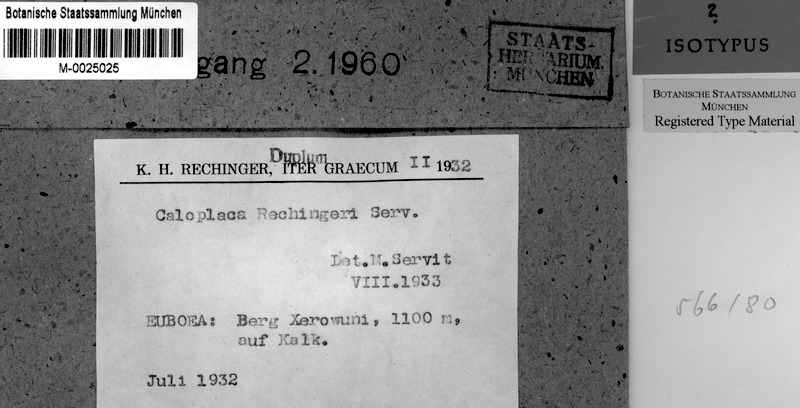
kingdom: Fungi
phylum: Ascomycota
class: Lecanoromycetes
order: Teloschistales
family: Teloschistaceae
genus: Caloplaca
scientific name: Caloplaca
